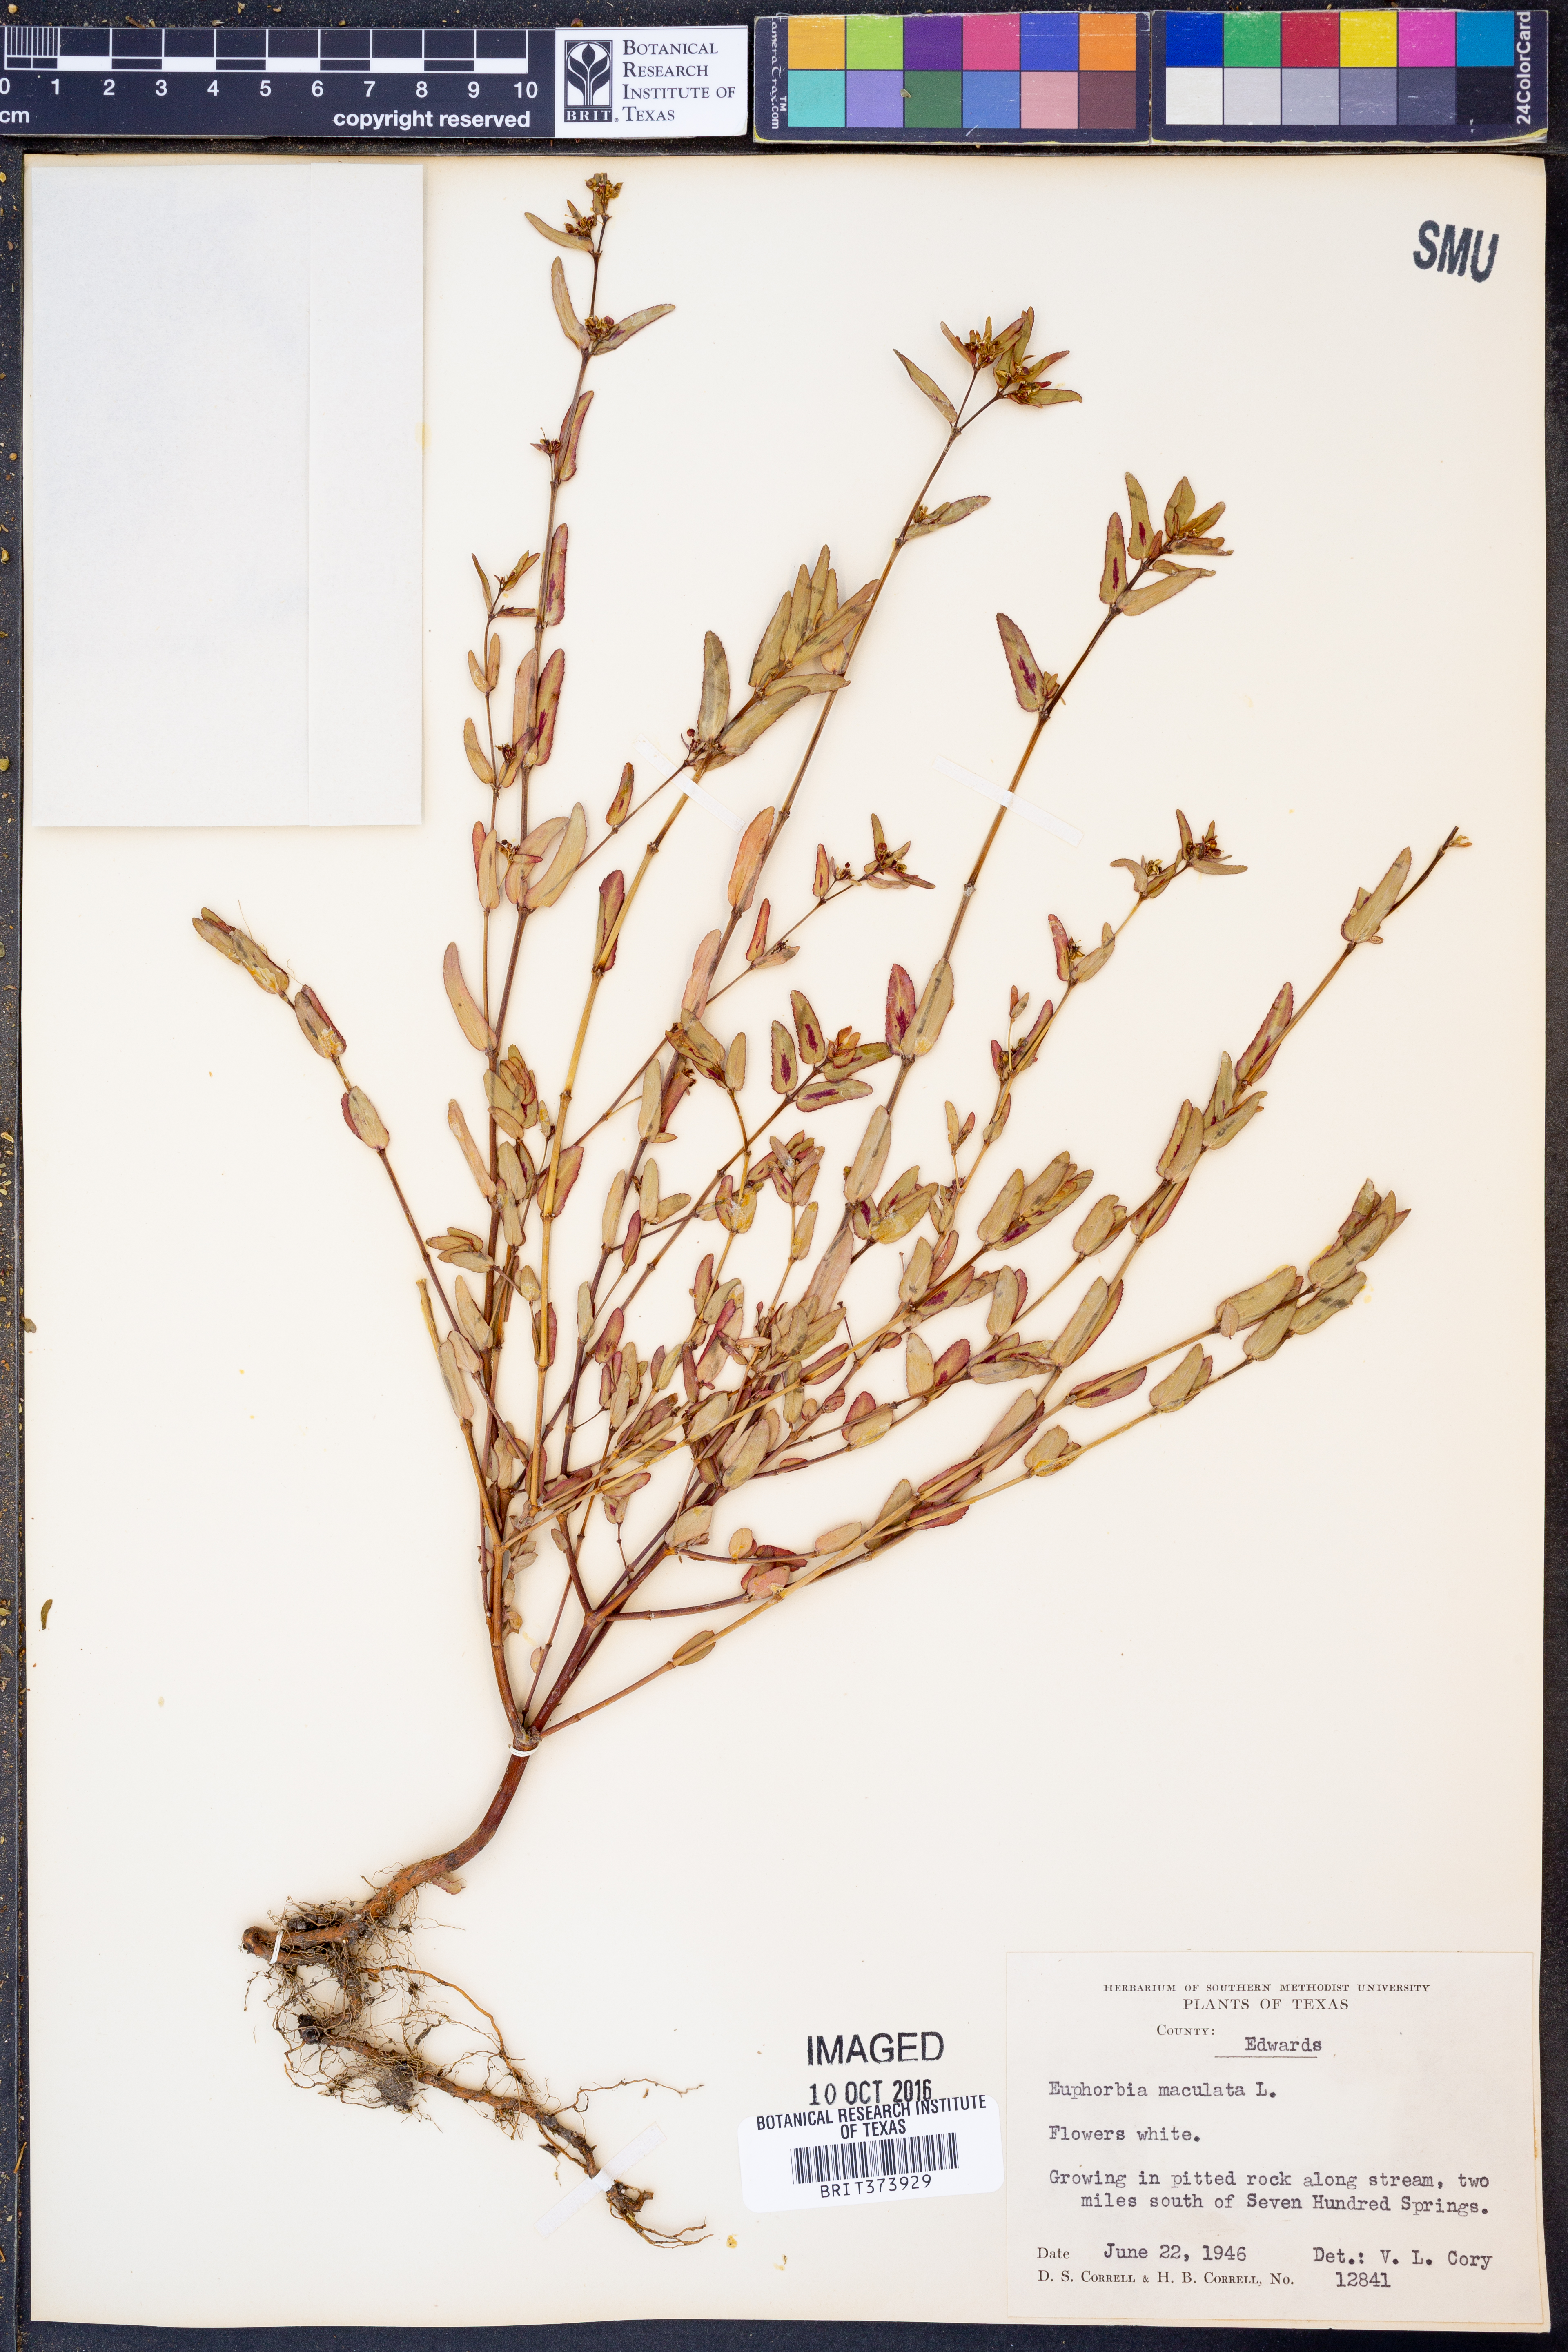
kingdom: Plantae
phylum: Tracheophyta
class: Magnoliopsida
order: Malpighiales
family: Euphorbiaceae
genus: Euphorbia
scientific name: Euphorbia maculata
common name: Spotted spurge
